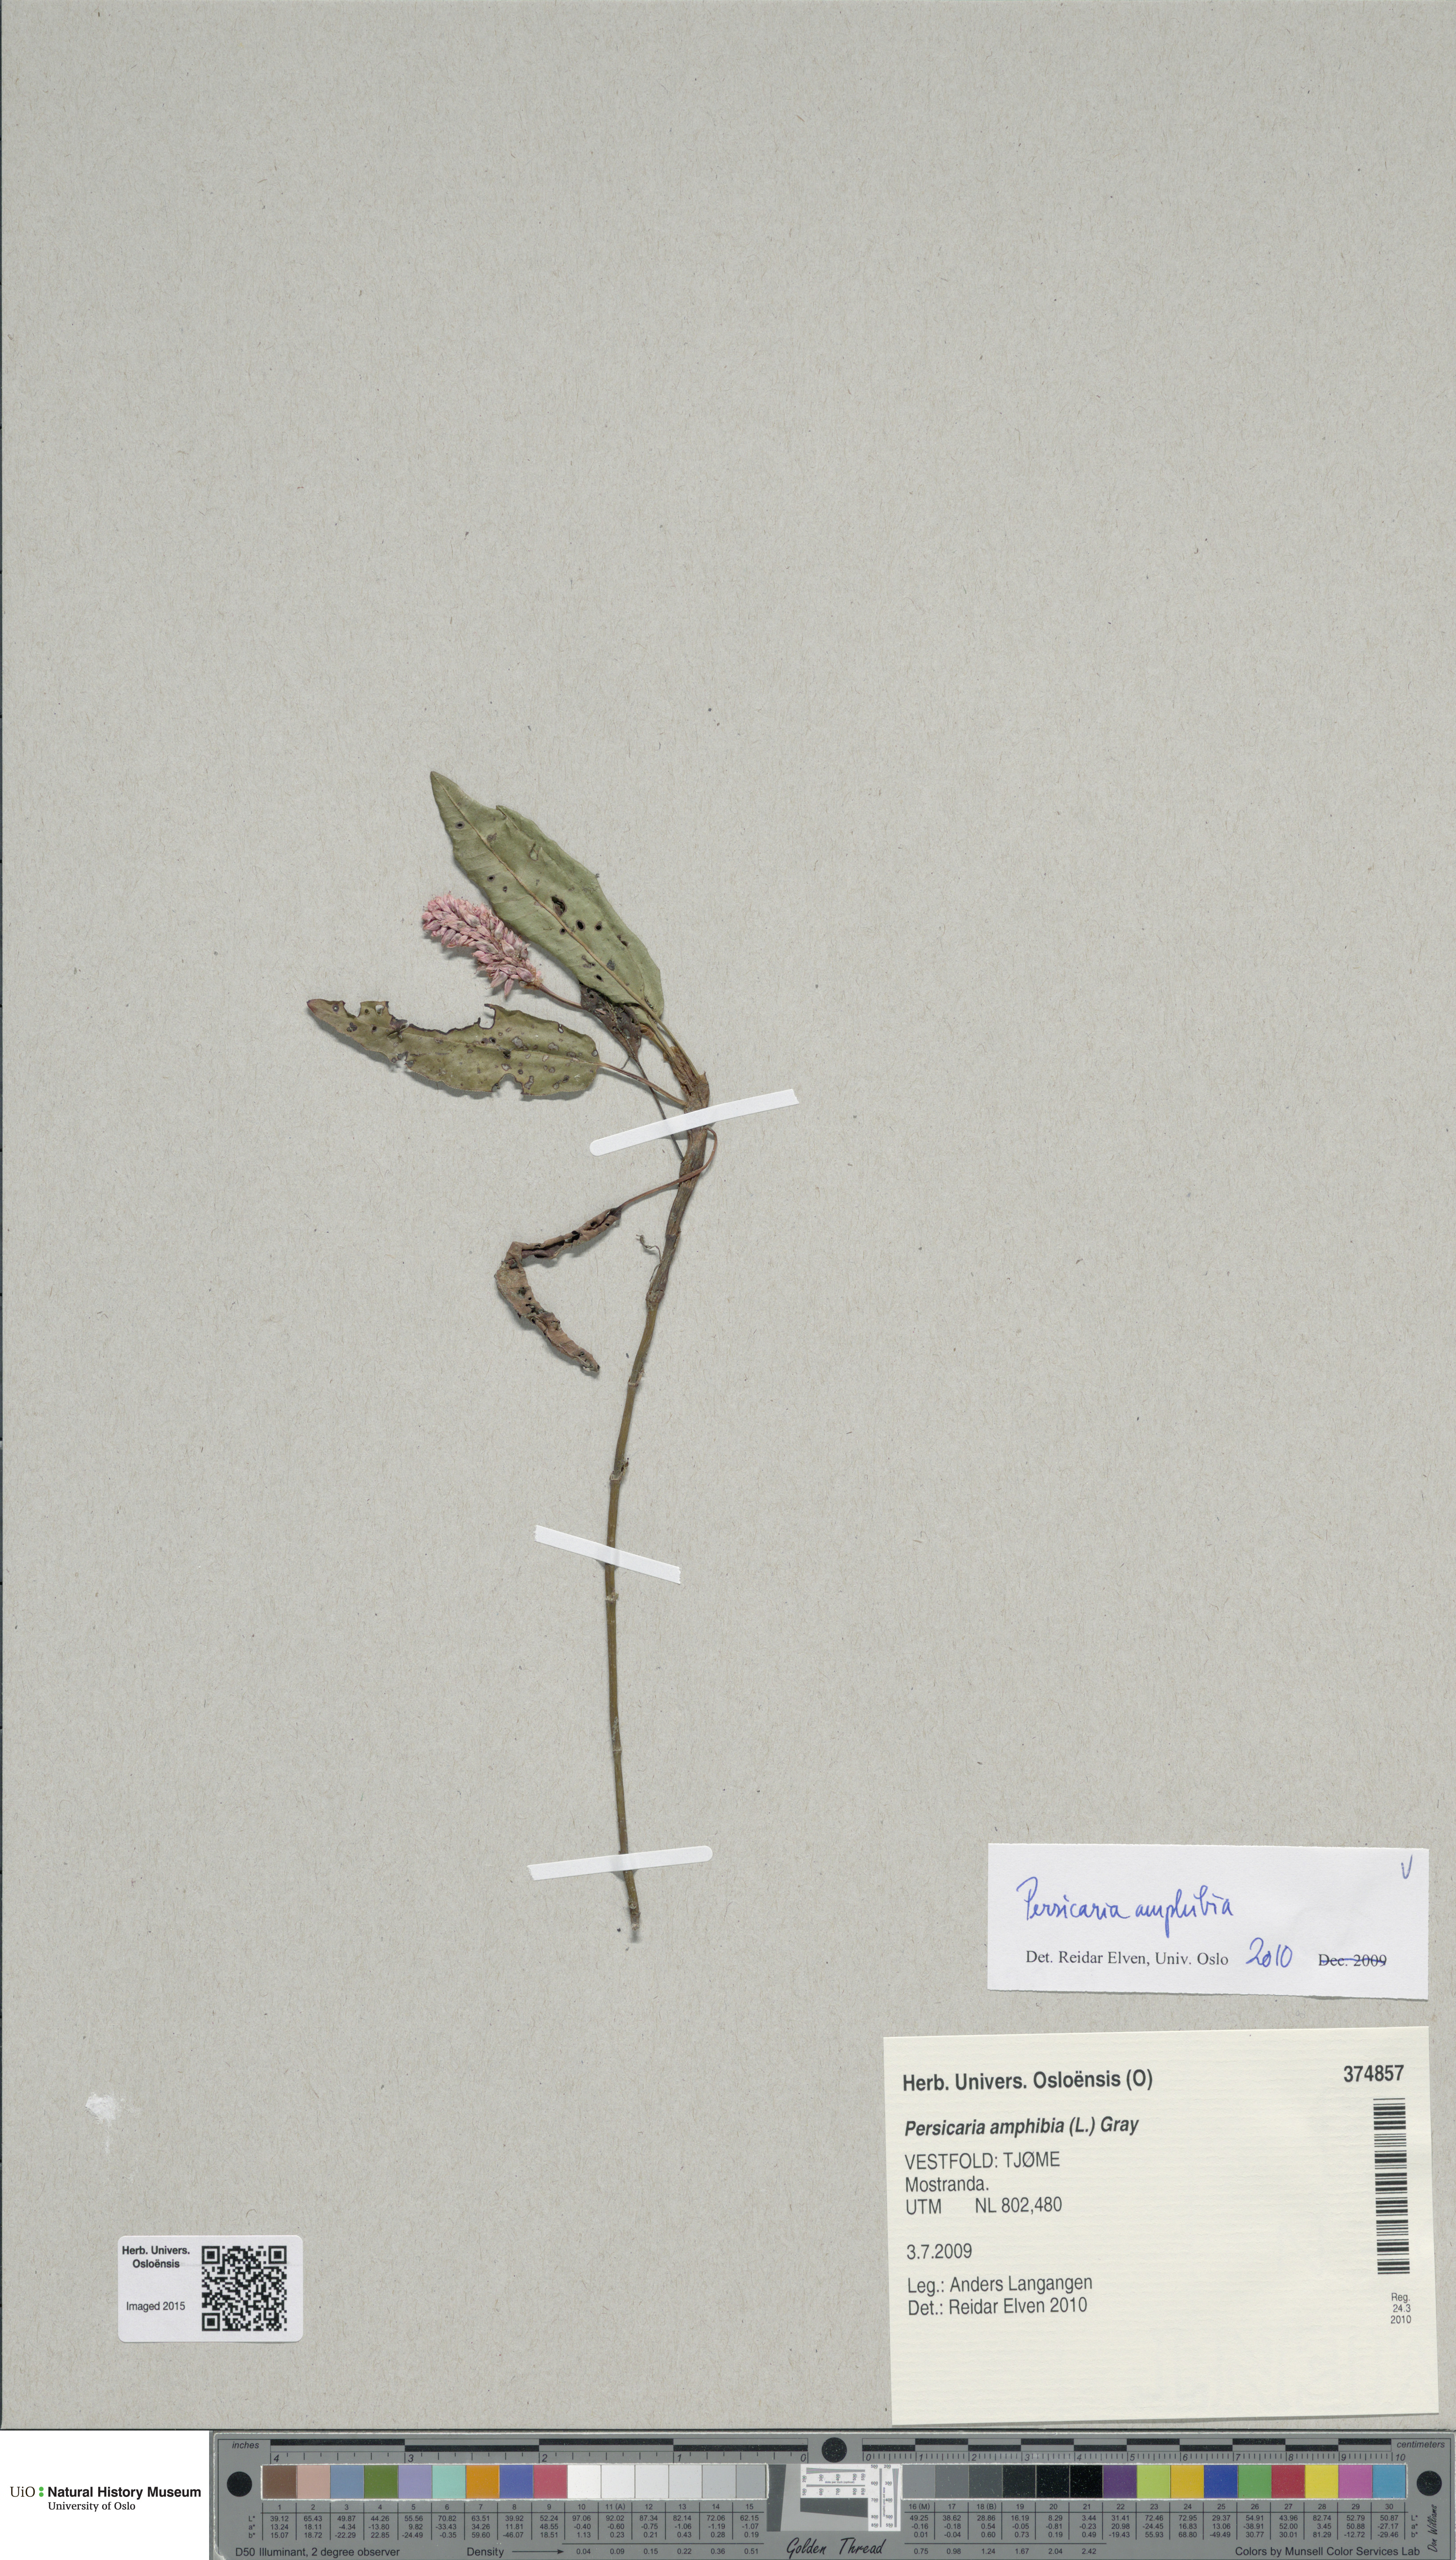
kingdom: Plantae
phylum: Tracheophyta
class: Magnoliopsida
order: Caryophyllales
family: Polygonaceae
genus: Persicaria
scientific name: Persicaria amphibia
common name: Amphibious bistort
